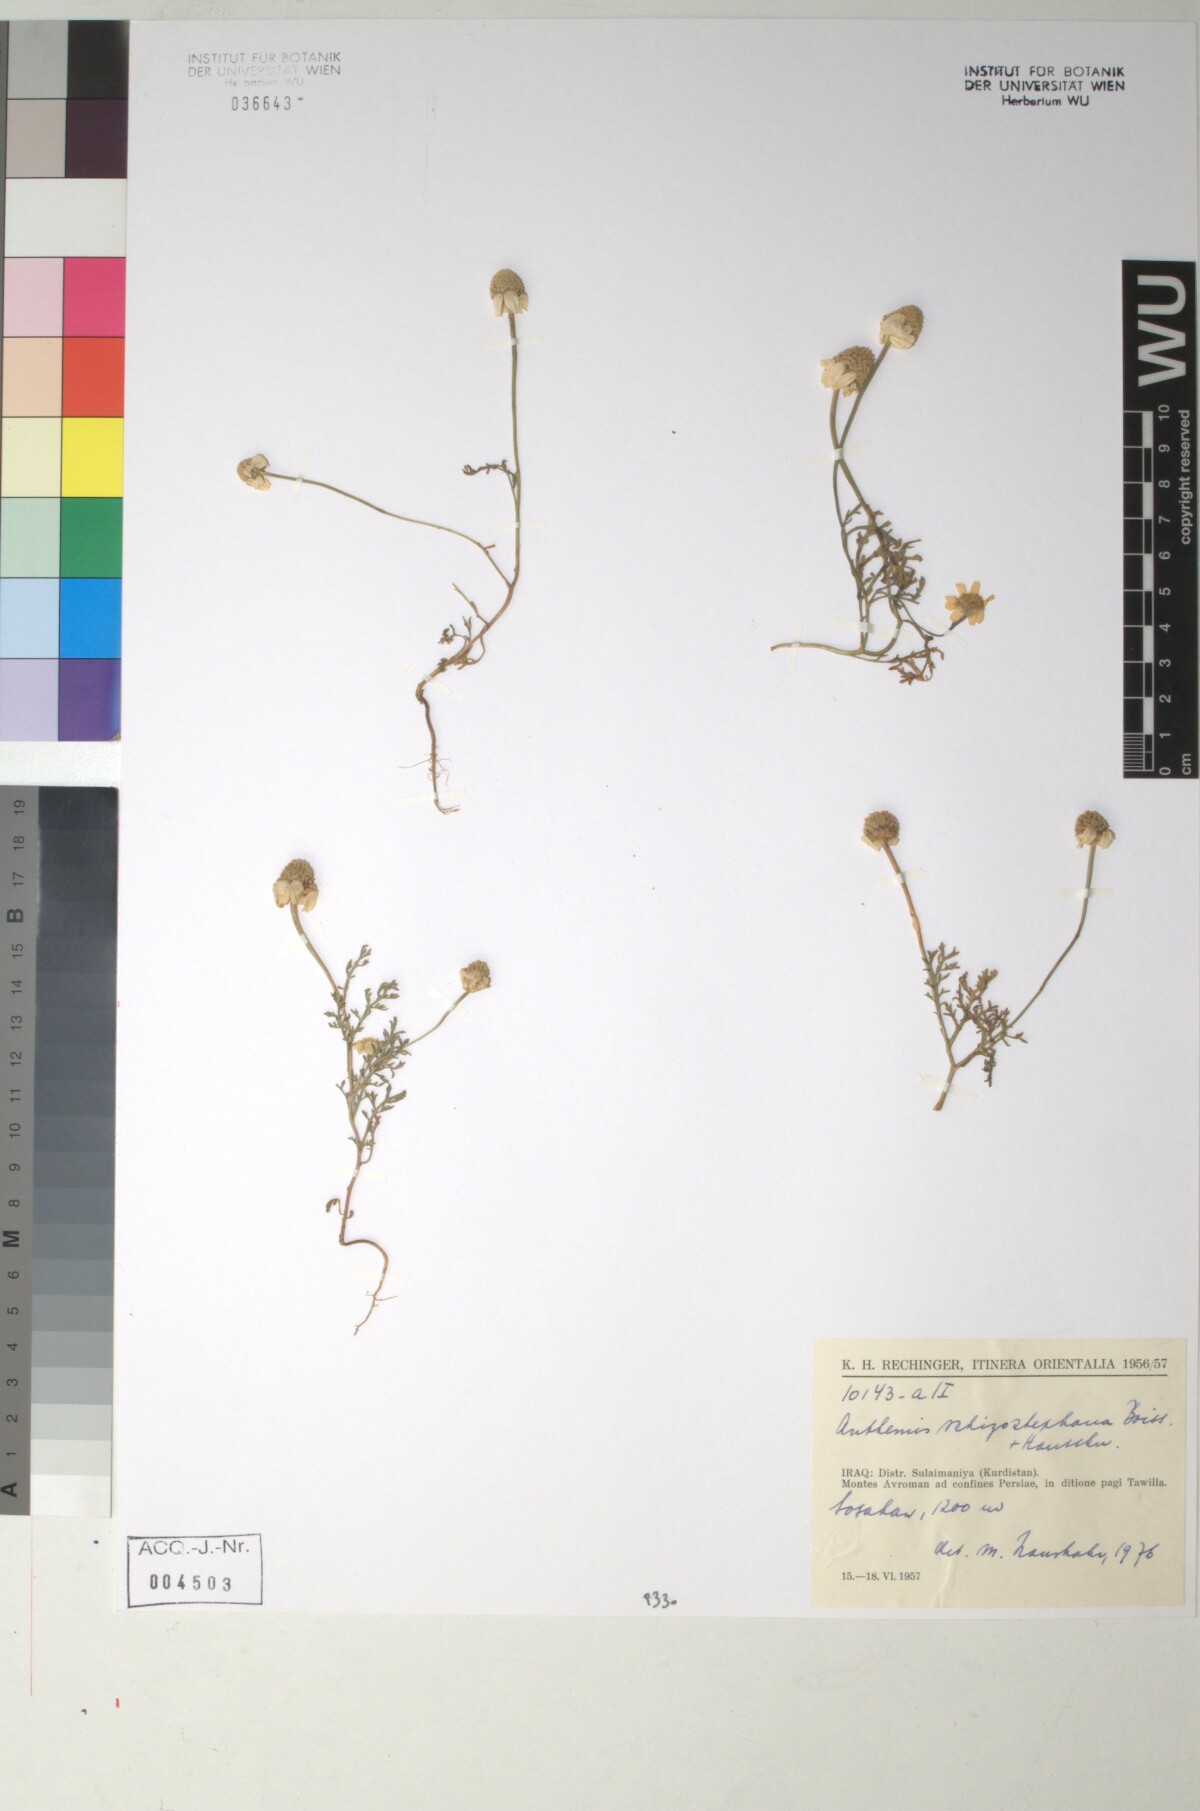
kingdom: Plantae
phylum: Tracheophyta
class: Magnoliopsida
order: Asterales
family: Asteraceae
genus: Anthemis
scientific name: Anthemis schizostephana
